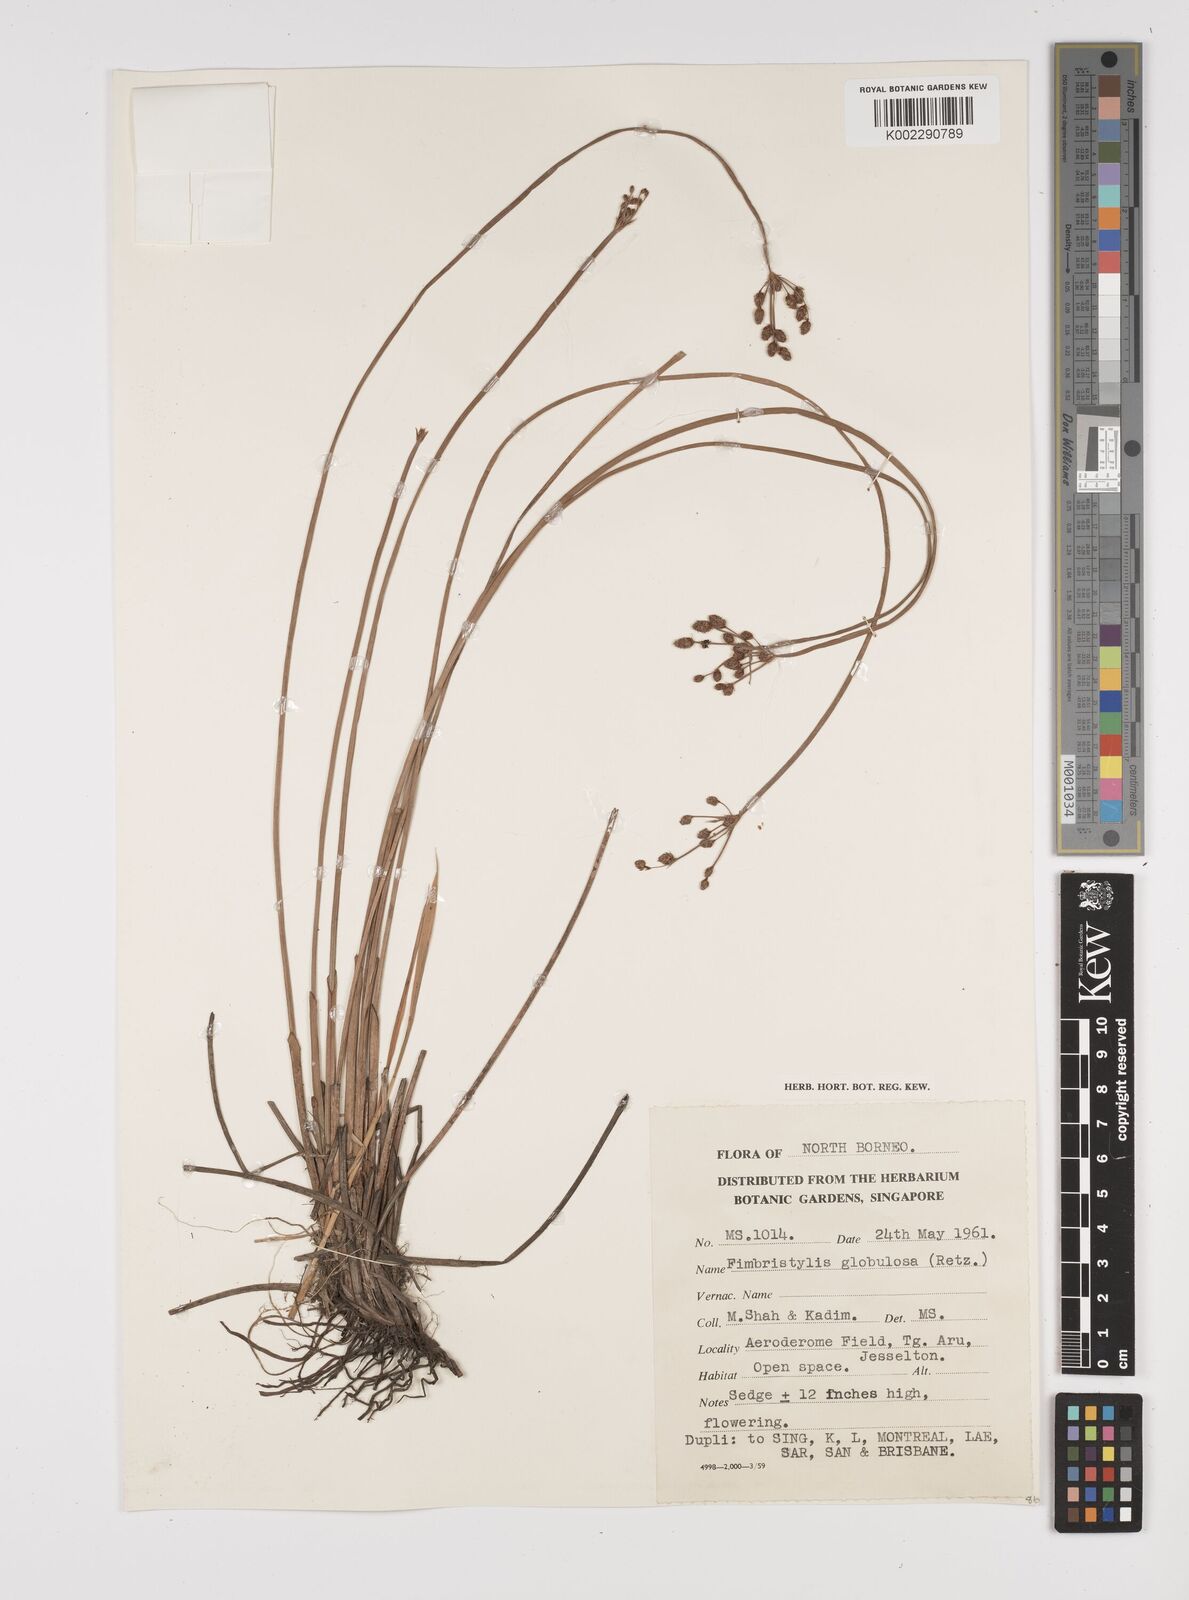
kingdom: Plantae
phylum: Tracheophyta
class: Liliopsida
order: Poales
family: Cyperaceae
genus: Fimbristylis
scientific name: Fimbristylis umbellaris
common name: Globular fimbristylis
